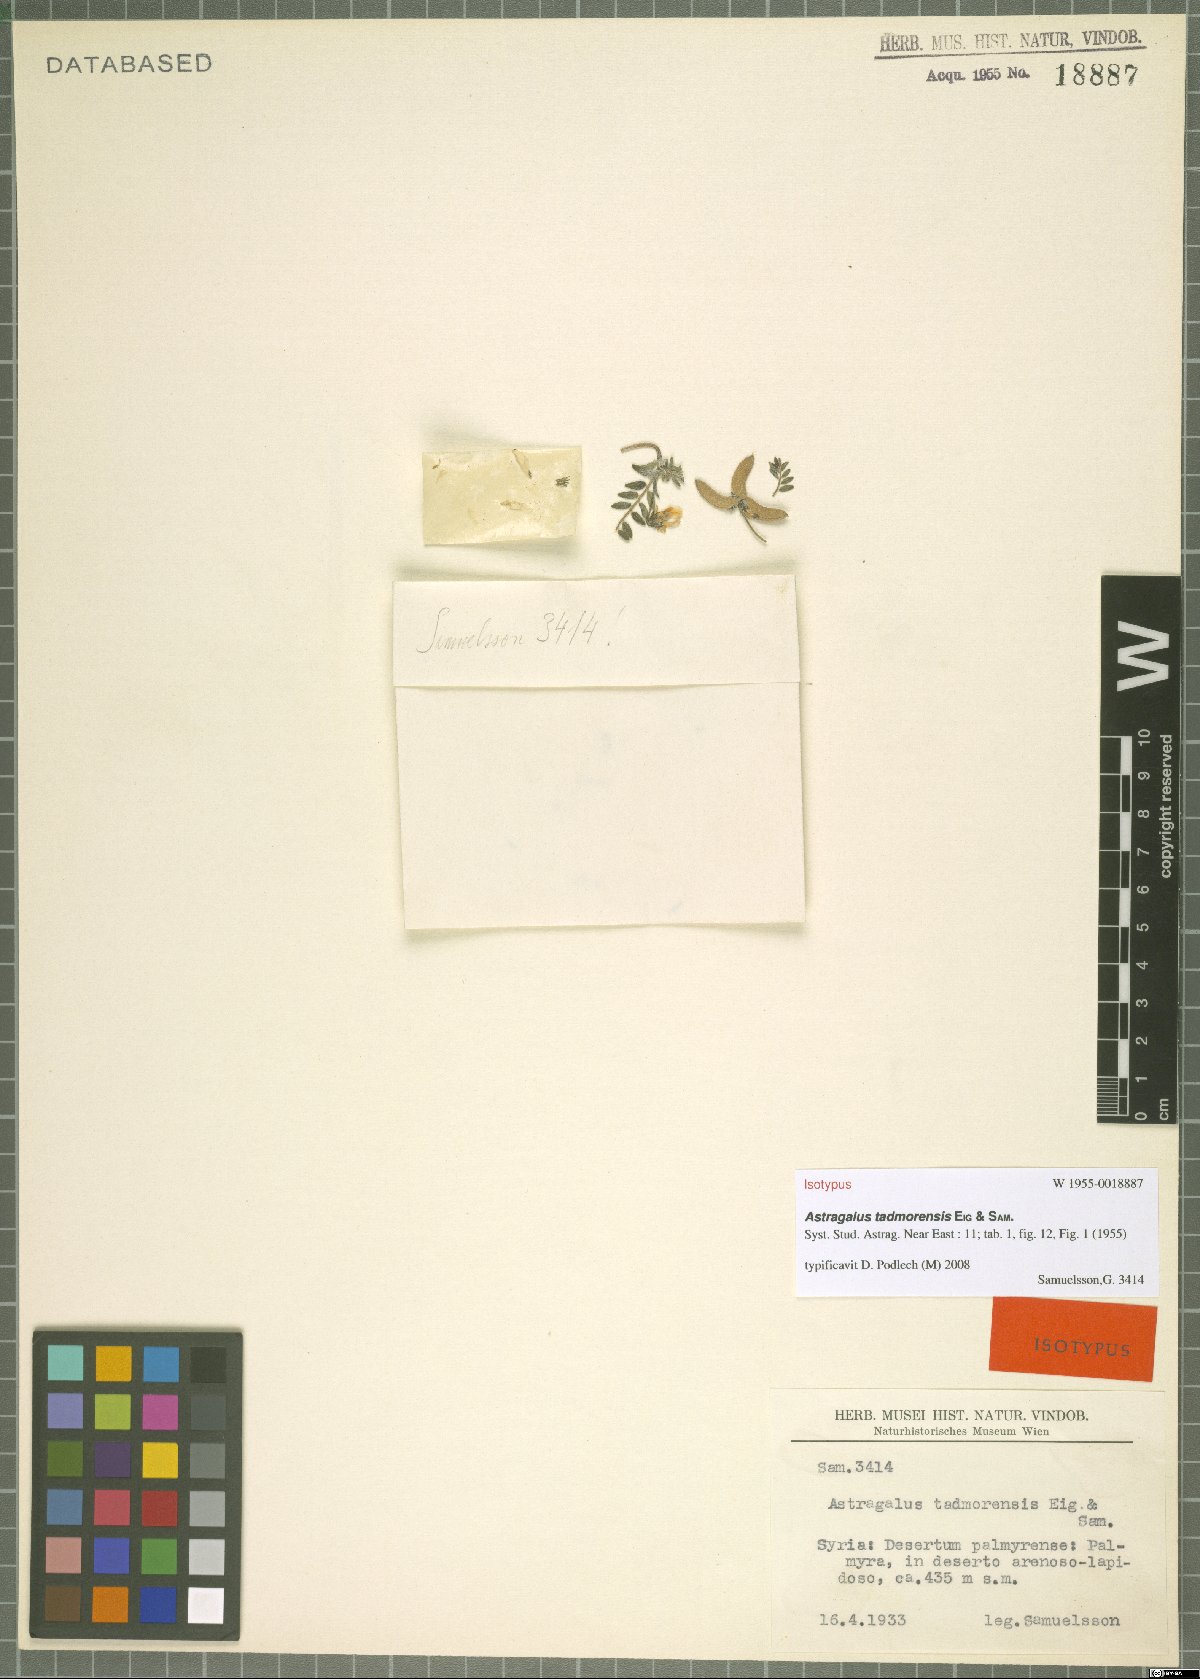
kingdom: Plantae
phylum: Tracheophyta
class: Magnoliopsida
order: Fabales
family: Fabaceae
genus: Astragalus
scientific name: Astragalus tadmorensis
